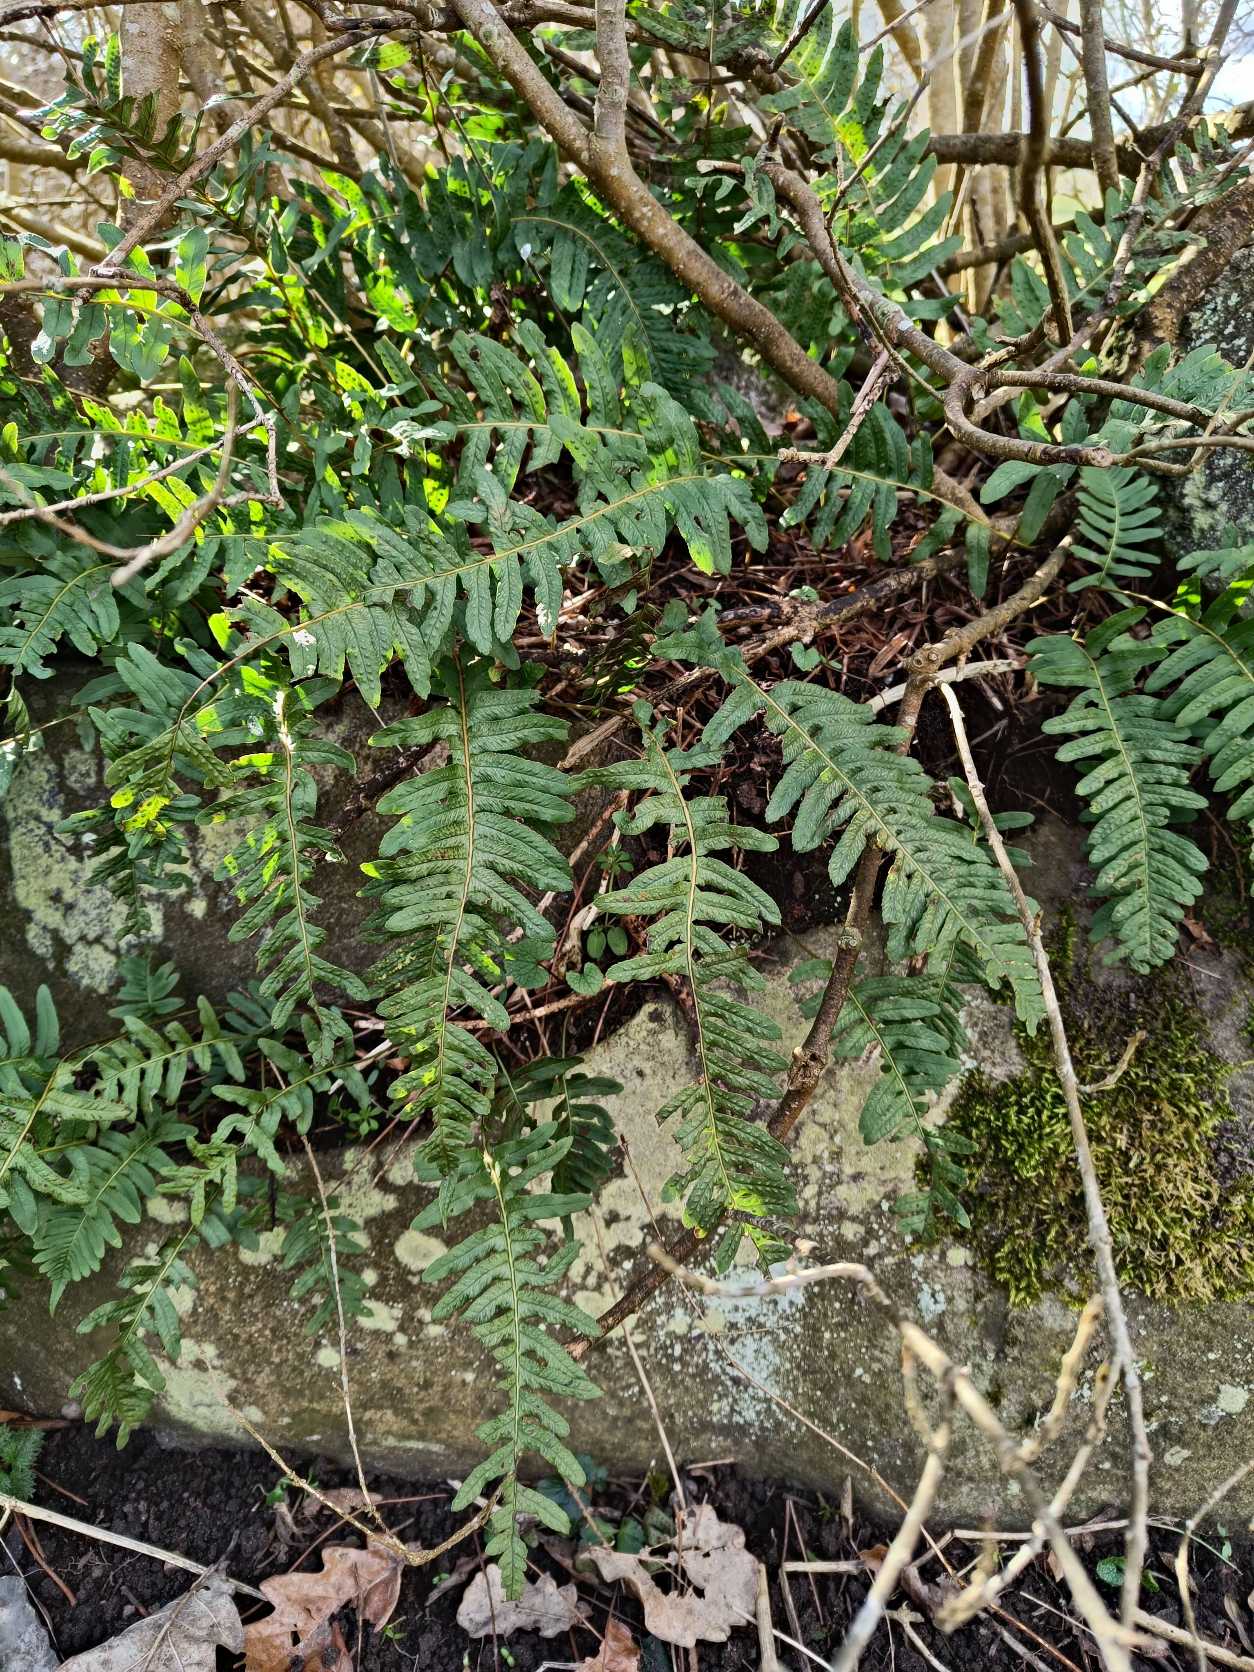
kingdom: Plantae
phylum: Tracheophyta
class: Polypodiopsida
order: Polypodiales
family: Polypodiaceae
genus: Polypodium
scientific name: Polypodium vulgare
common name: Almindelig engelsød
